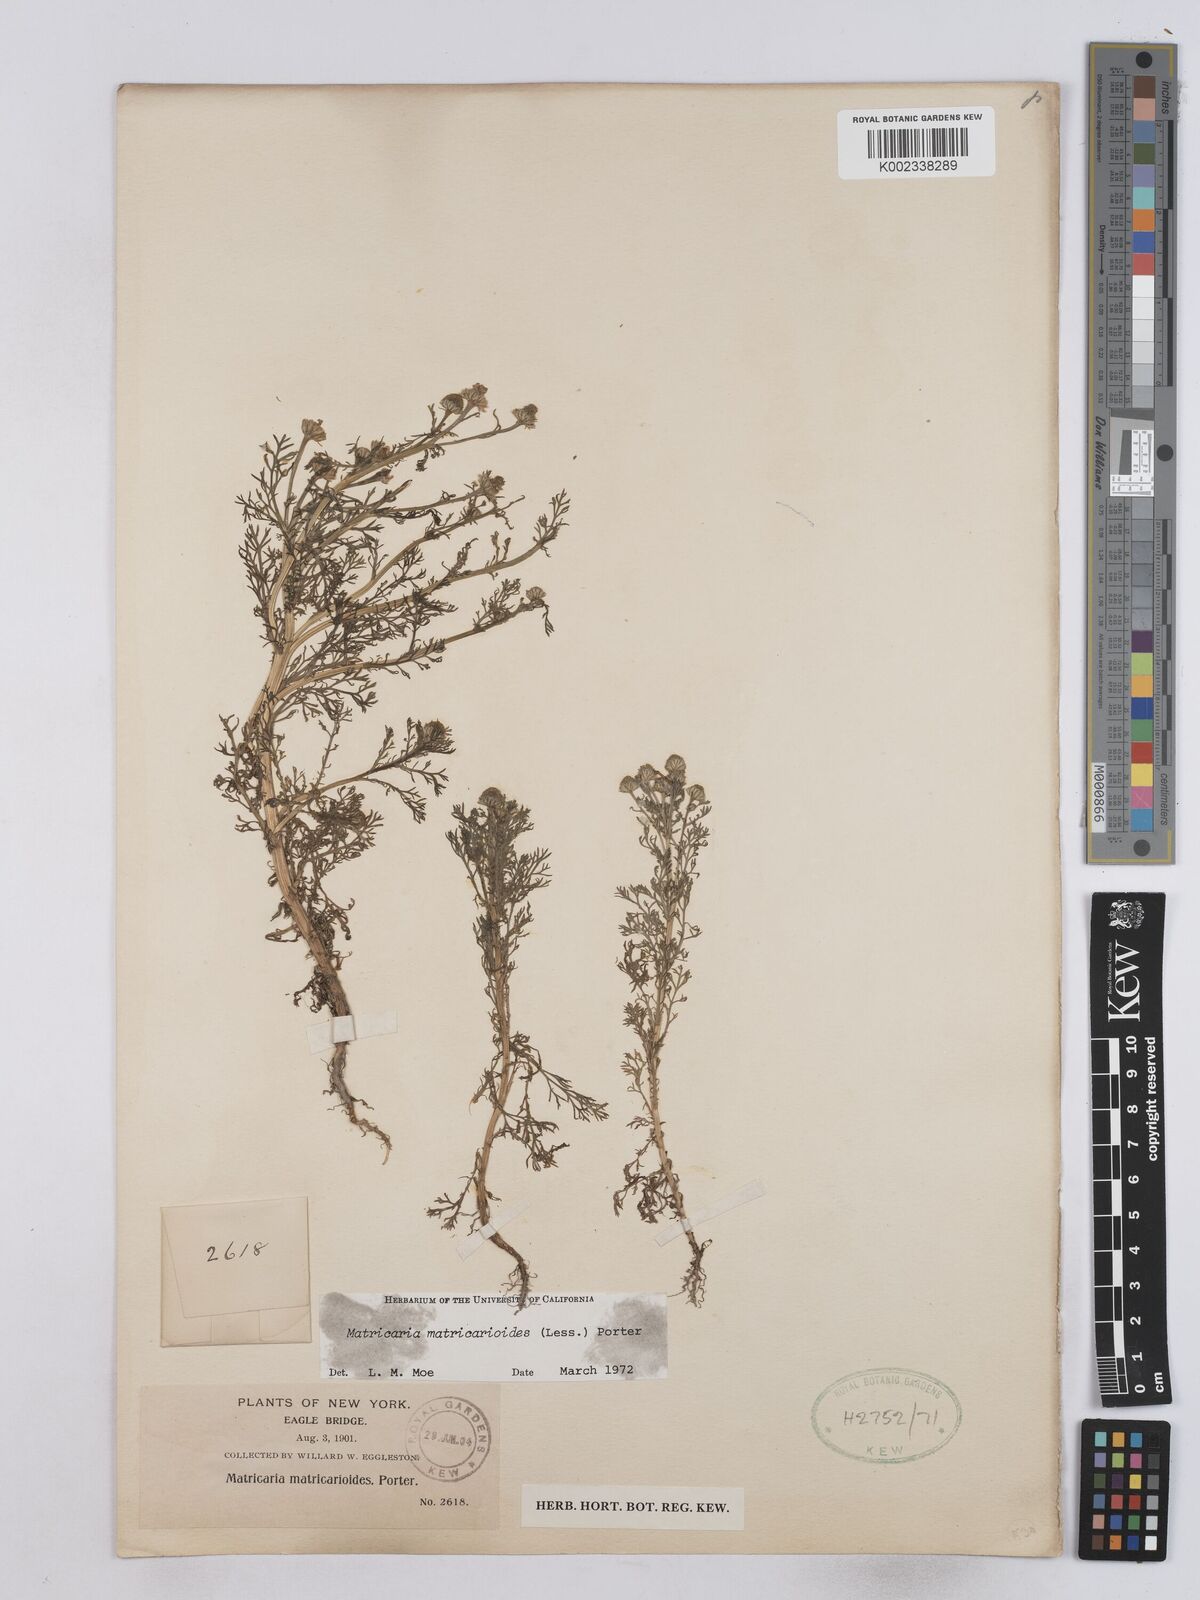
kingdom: Plantae
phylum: Tracheophyta
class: Magnoliopsida
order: Asterales
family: Asteraceae
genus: Matricaria
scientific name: Matricaria discoidea
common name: Disc mayweed
